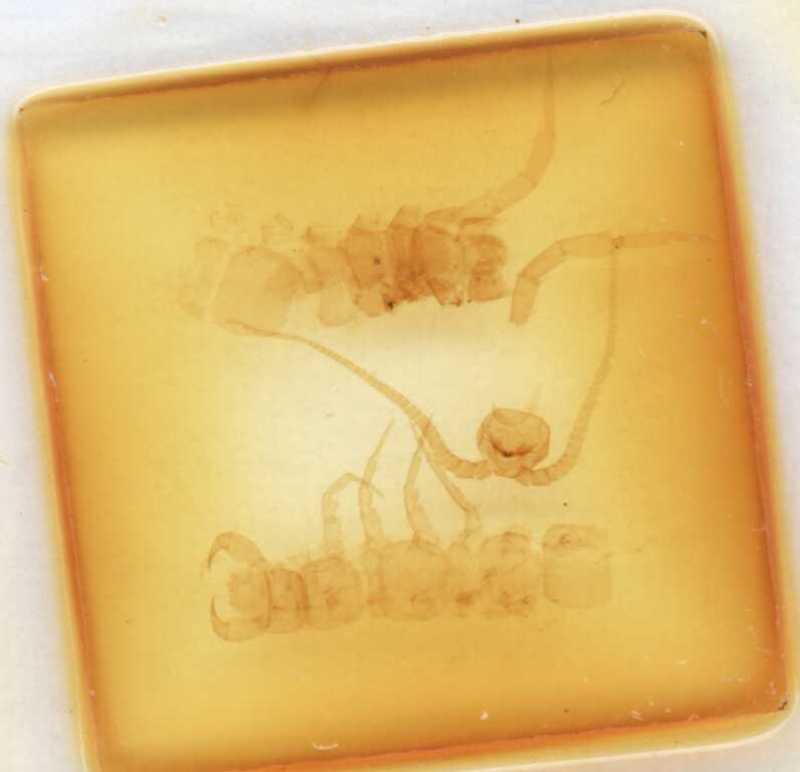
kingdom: Animalia
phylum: Arthropoda
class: Chilopoda
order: Lithobiomorpha
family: Lithobiidae
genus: Lithobius
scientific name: Lithobius nodulipes
